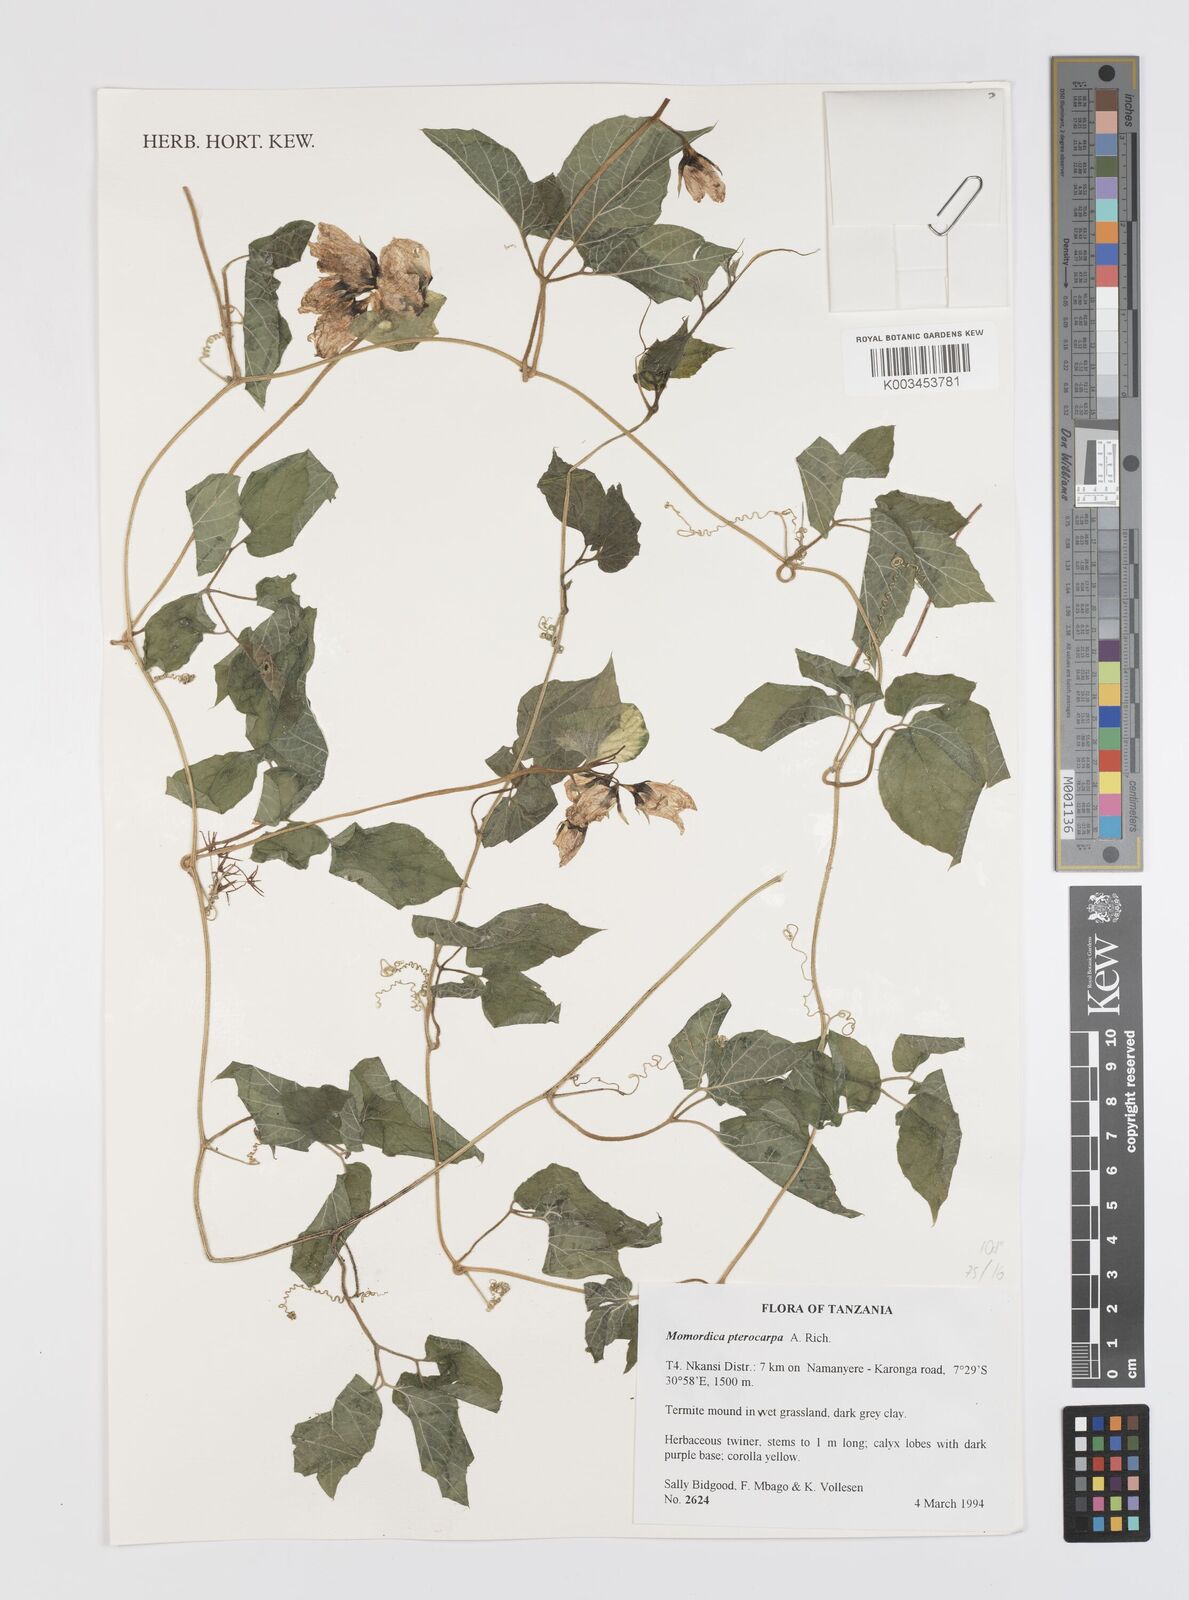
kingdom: Plantae
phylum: Tracheophyta
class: Magnoliopsida
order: Cucurbitales
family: Cucurbitaceae
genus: Momordica
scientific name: Momordica pterocarpa
